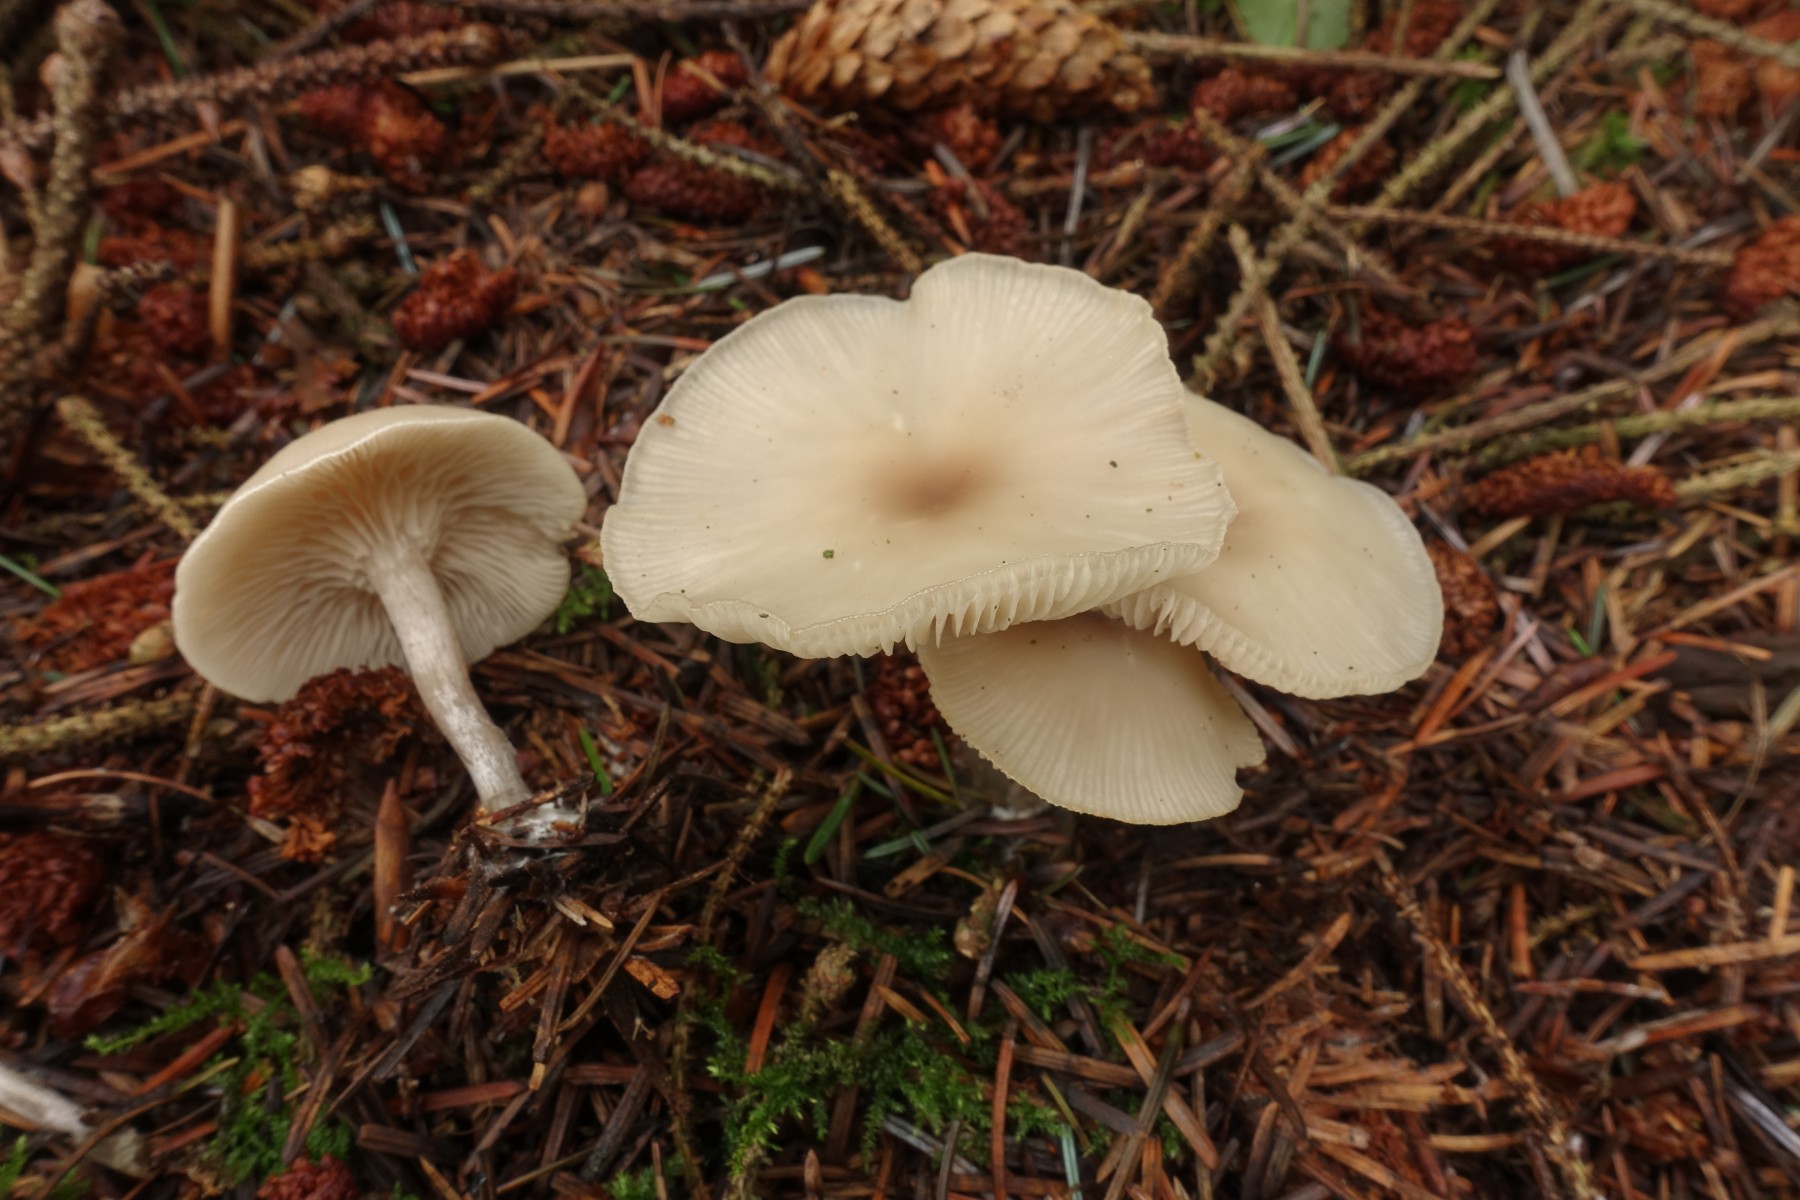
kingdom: Fungi
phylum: Basidiomycota
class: Agaricomycetes
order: Agaricales
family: Tricholomataceae
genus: Clitocybe
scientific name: Clitocybe metachroa
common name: grå tragthat
